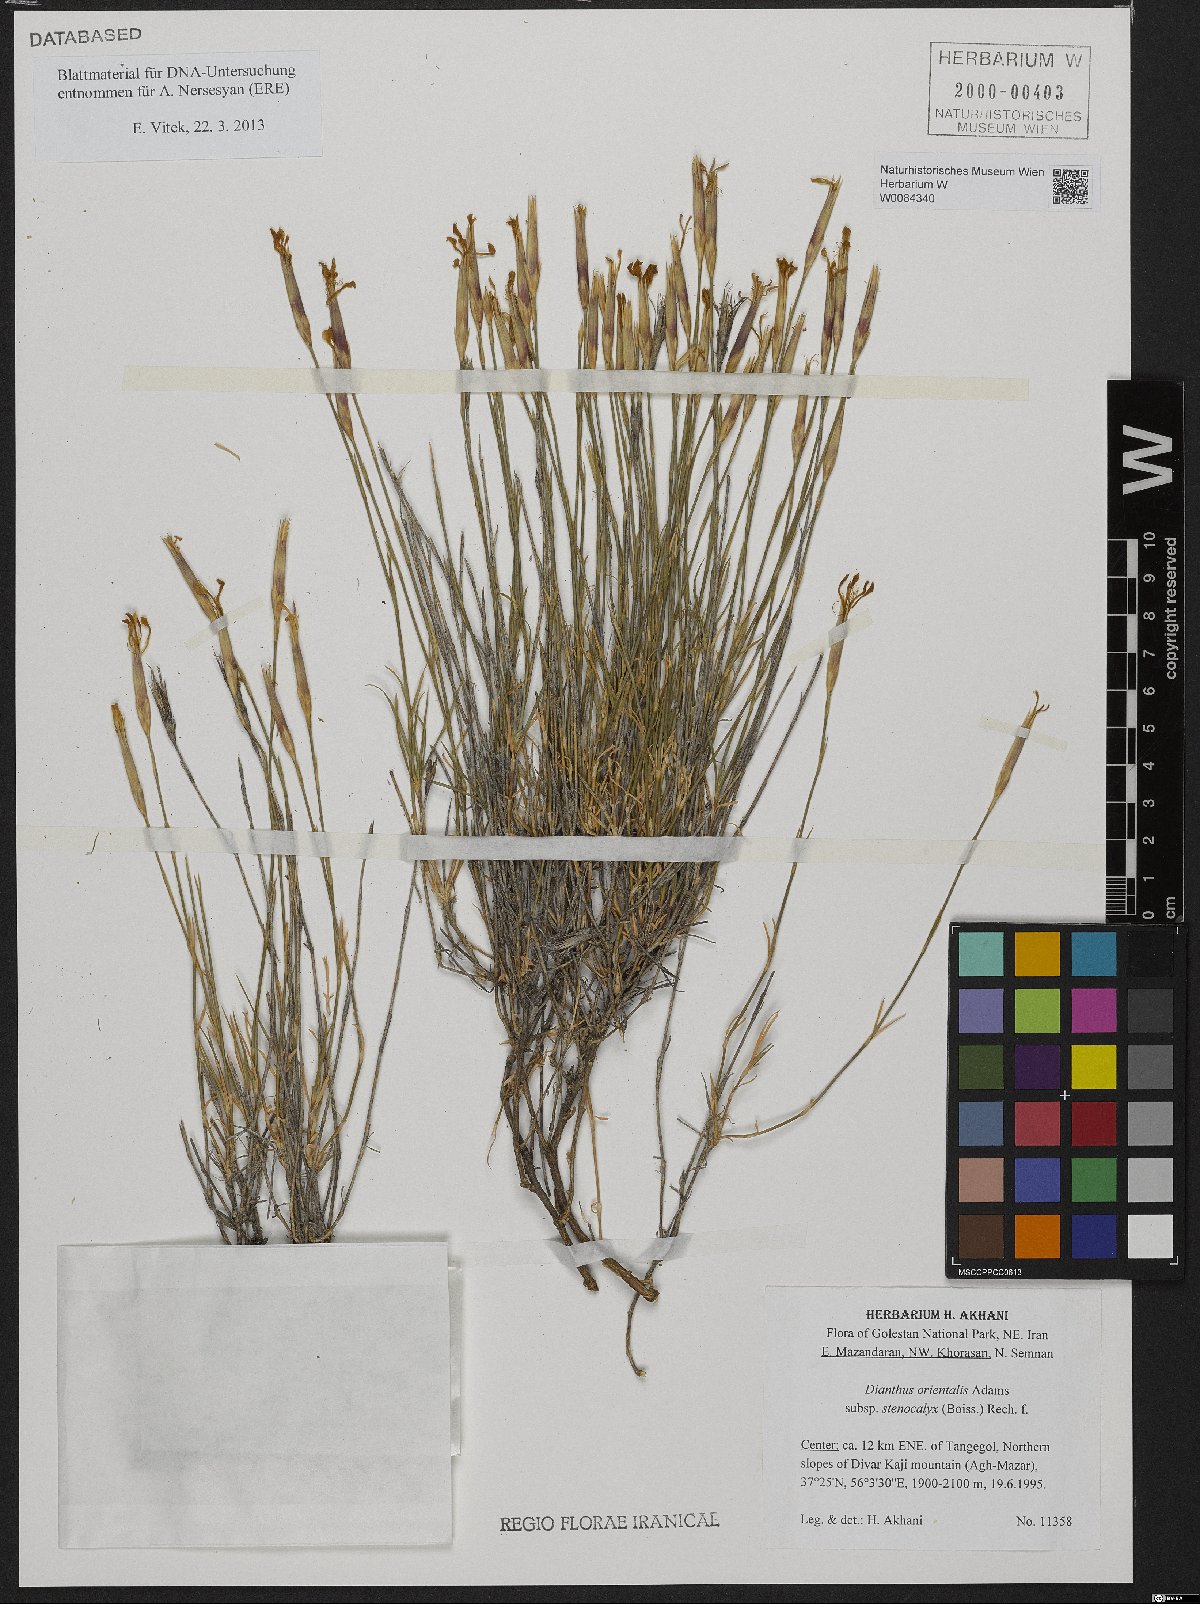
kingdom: Plantae
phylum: Tracheophyta
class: Magnoliopsida
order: Caryophyllales
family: Caryophyllaceae
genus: Dianthus
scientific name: Dianthus orientalis
